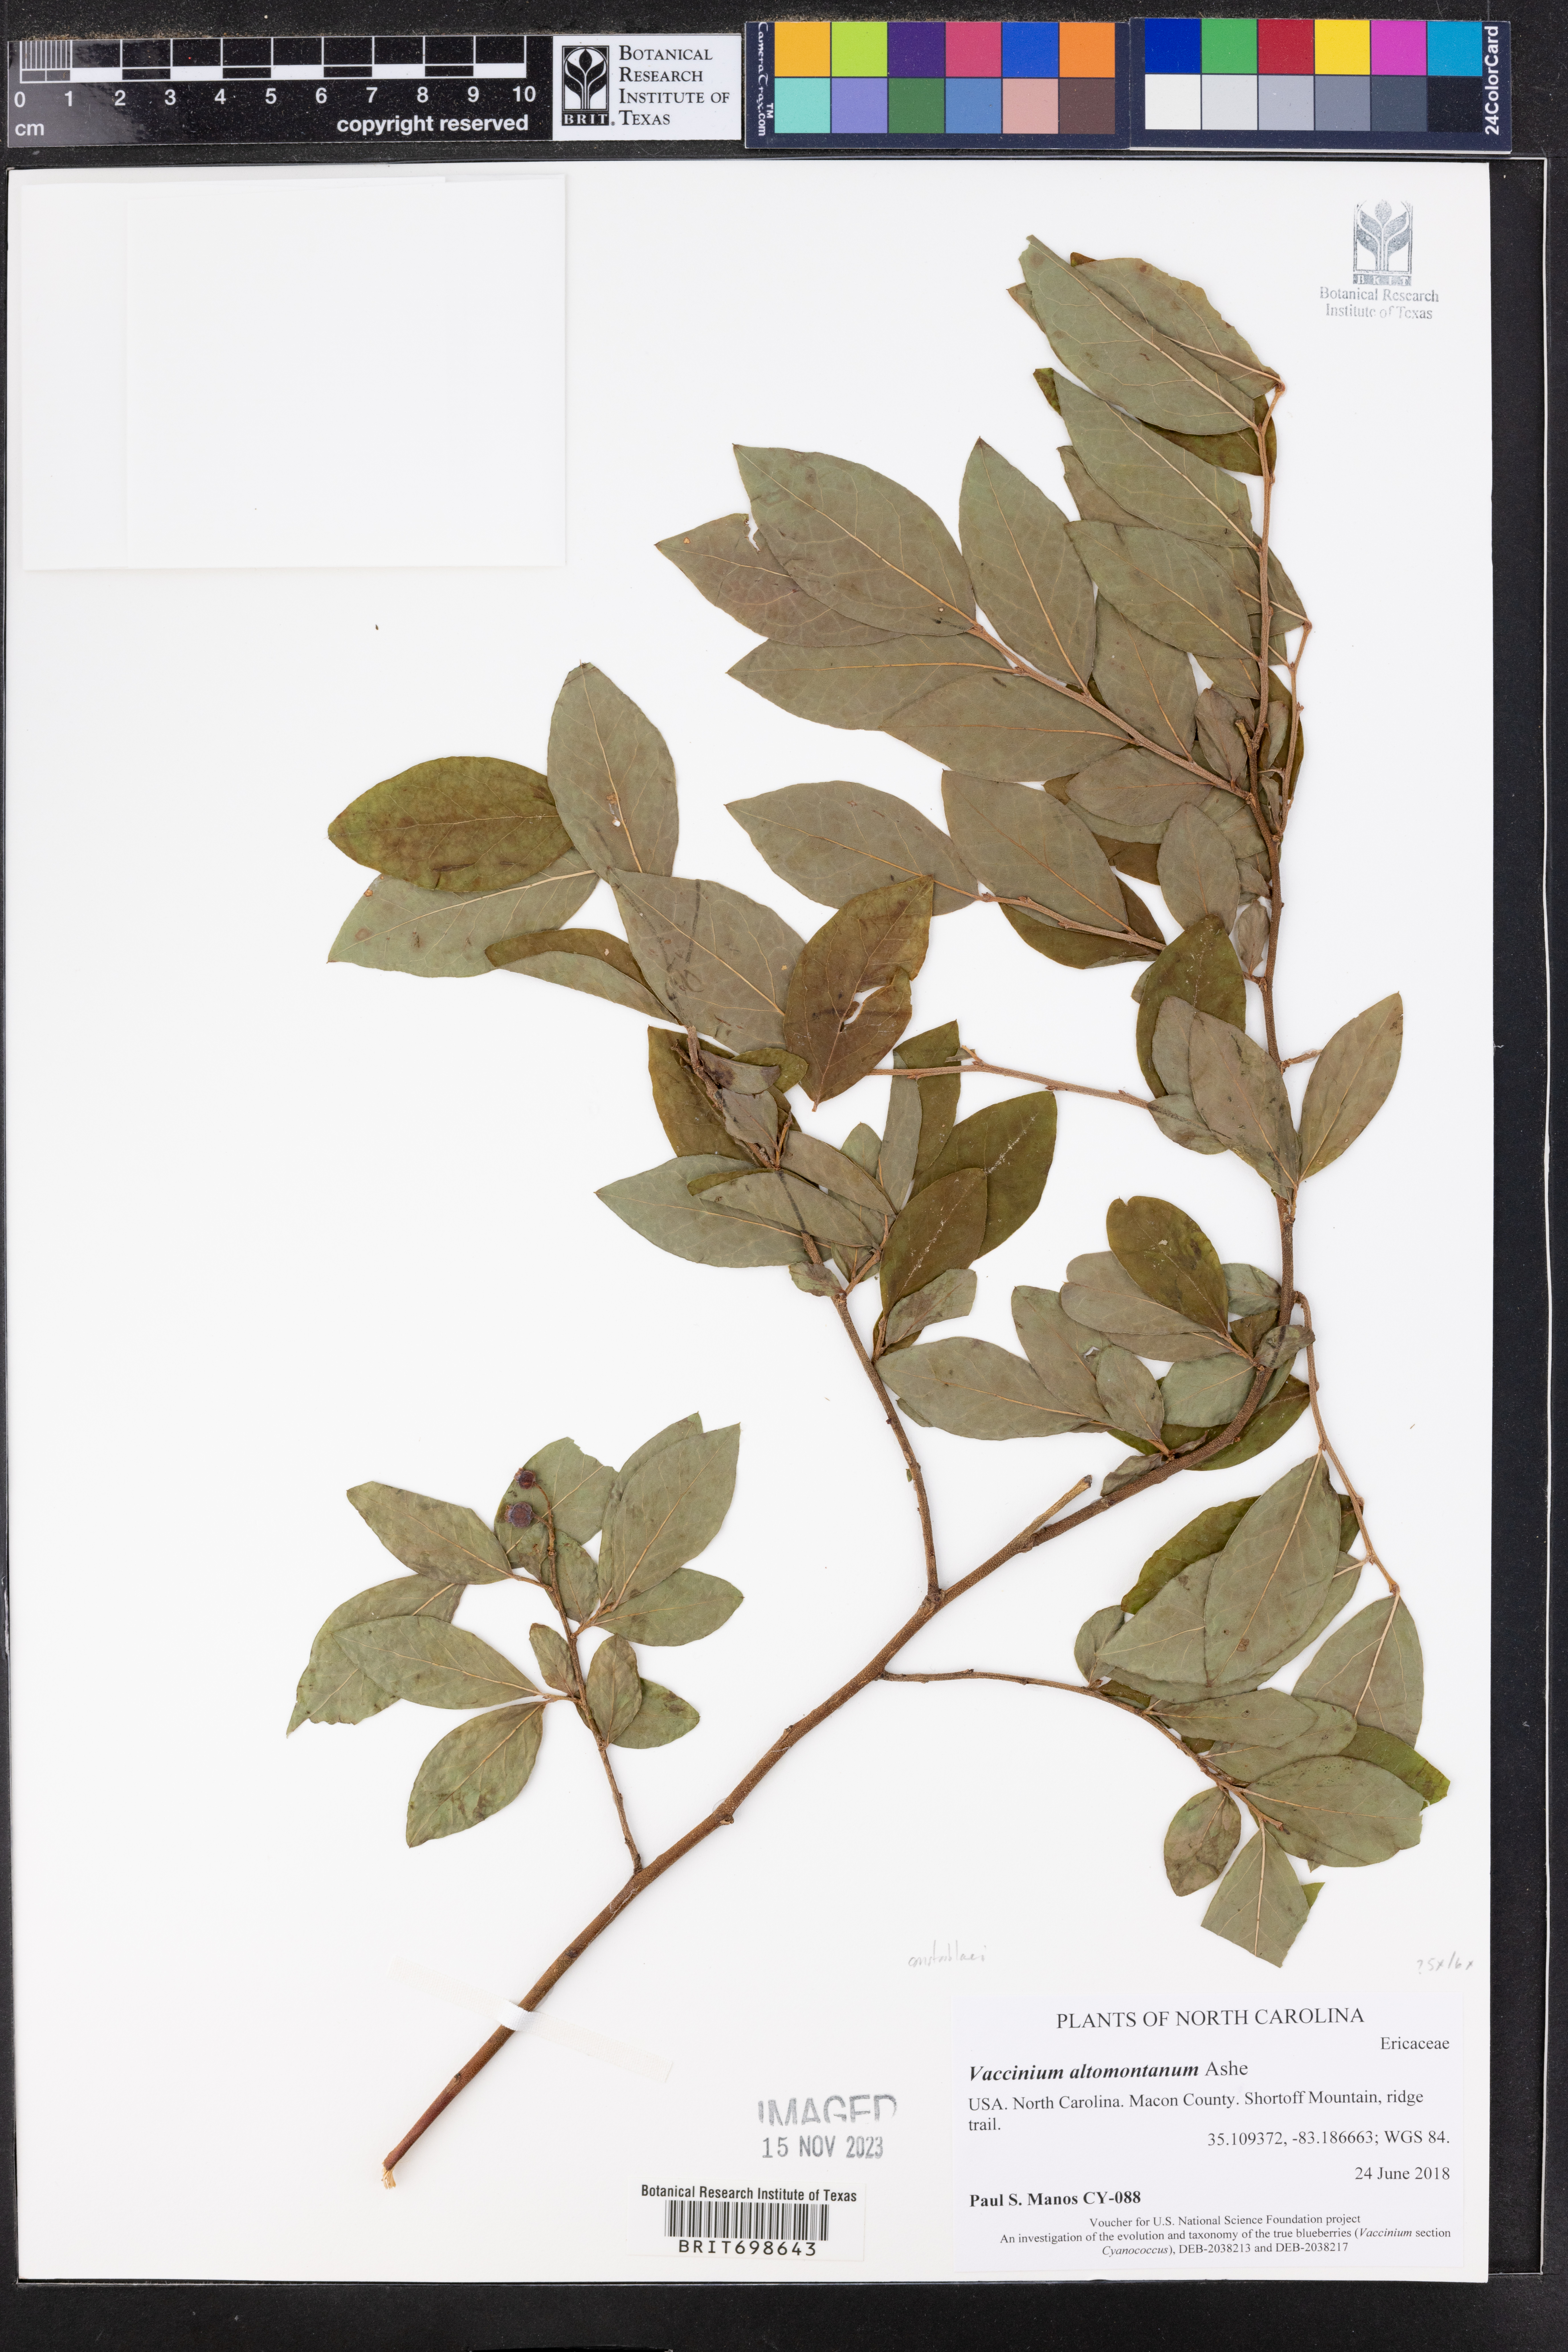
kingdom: Plantae
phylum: Tracheophyta
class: Magnoliopsida
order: Ericales
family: Ericaceae
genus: Vaccinium
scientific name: Vaccinium pallidum
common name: Blue ridge blueberry
